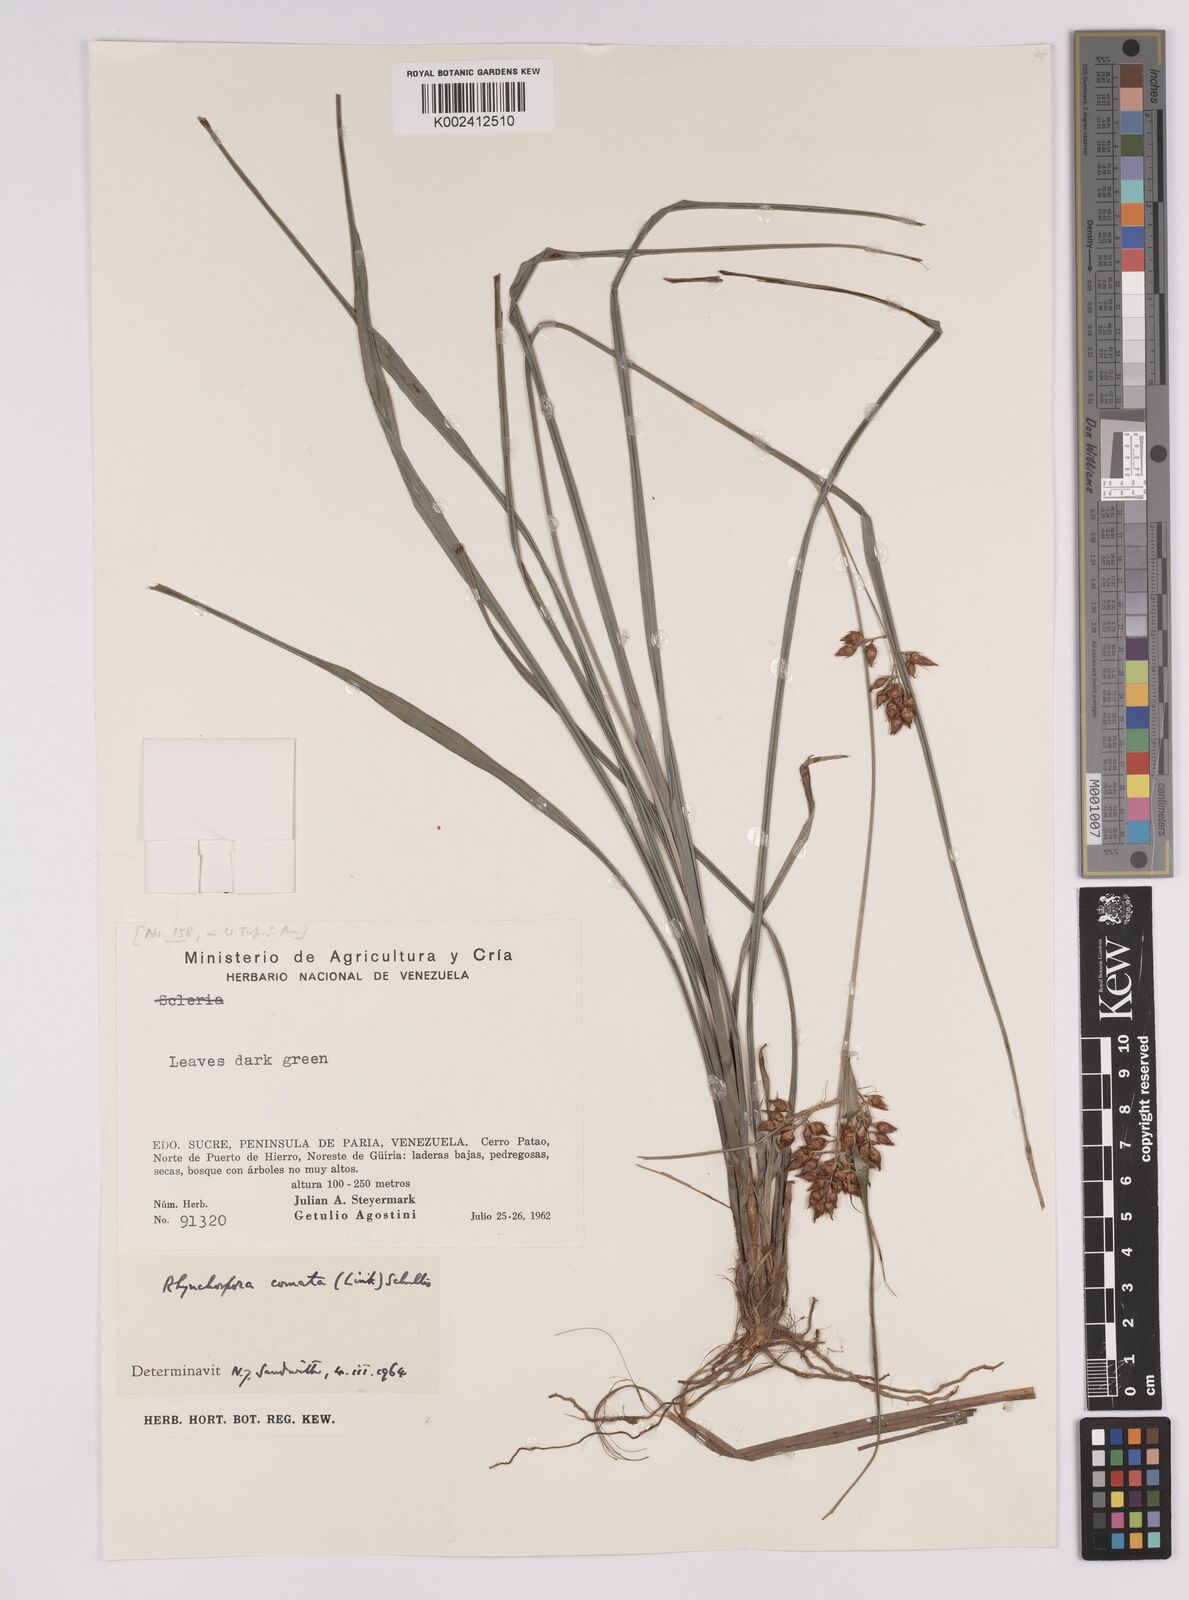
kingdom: Plantae
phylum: Tracheophyta
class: Liliopsida
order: Poales
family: Cyperaceae
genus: Rhynchospora
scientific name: Rhynchospora comata
